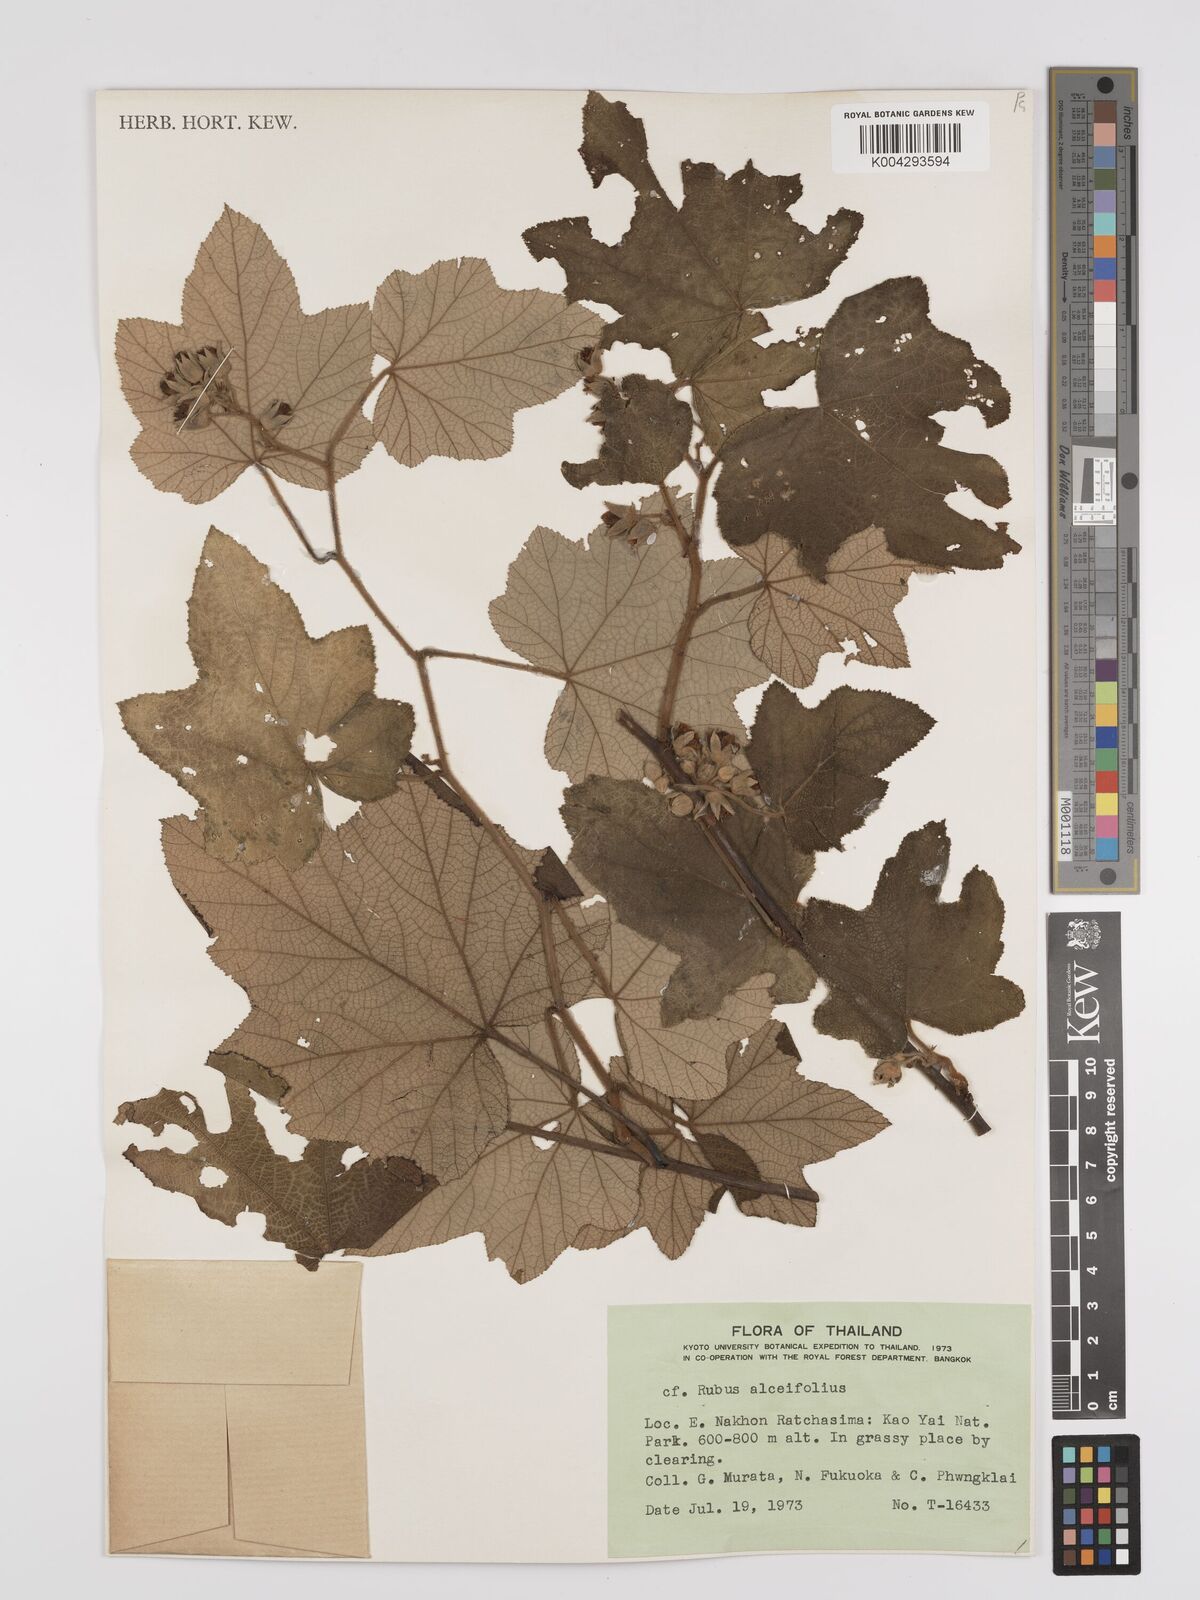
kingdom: Plantae
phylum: Tracheophyta
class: Magnoliopsida
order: Rosales
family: Rosaceae
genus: Rubus
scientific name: Rubus alceifolius
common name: Giant bramble
